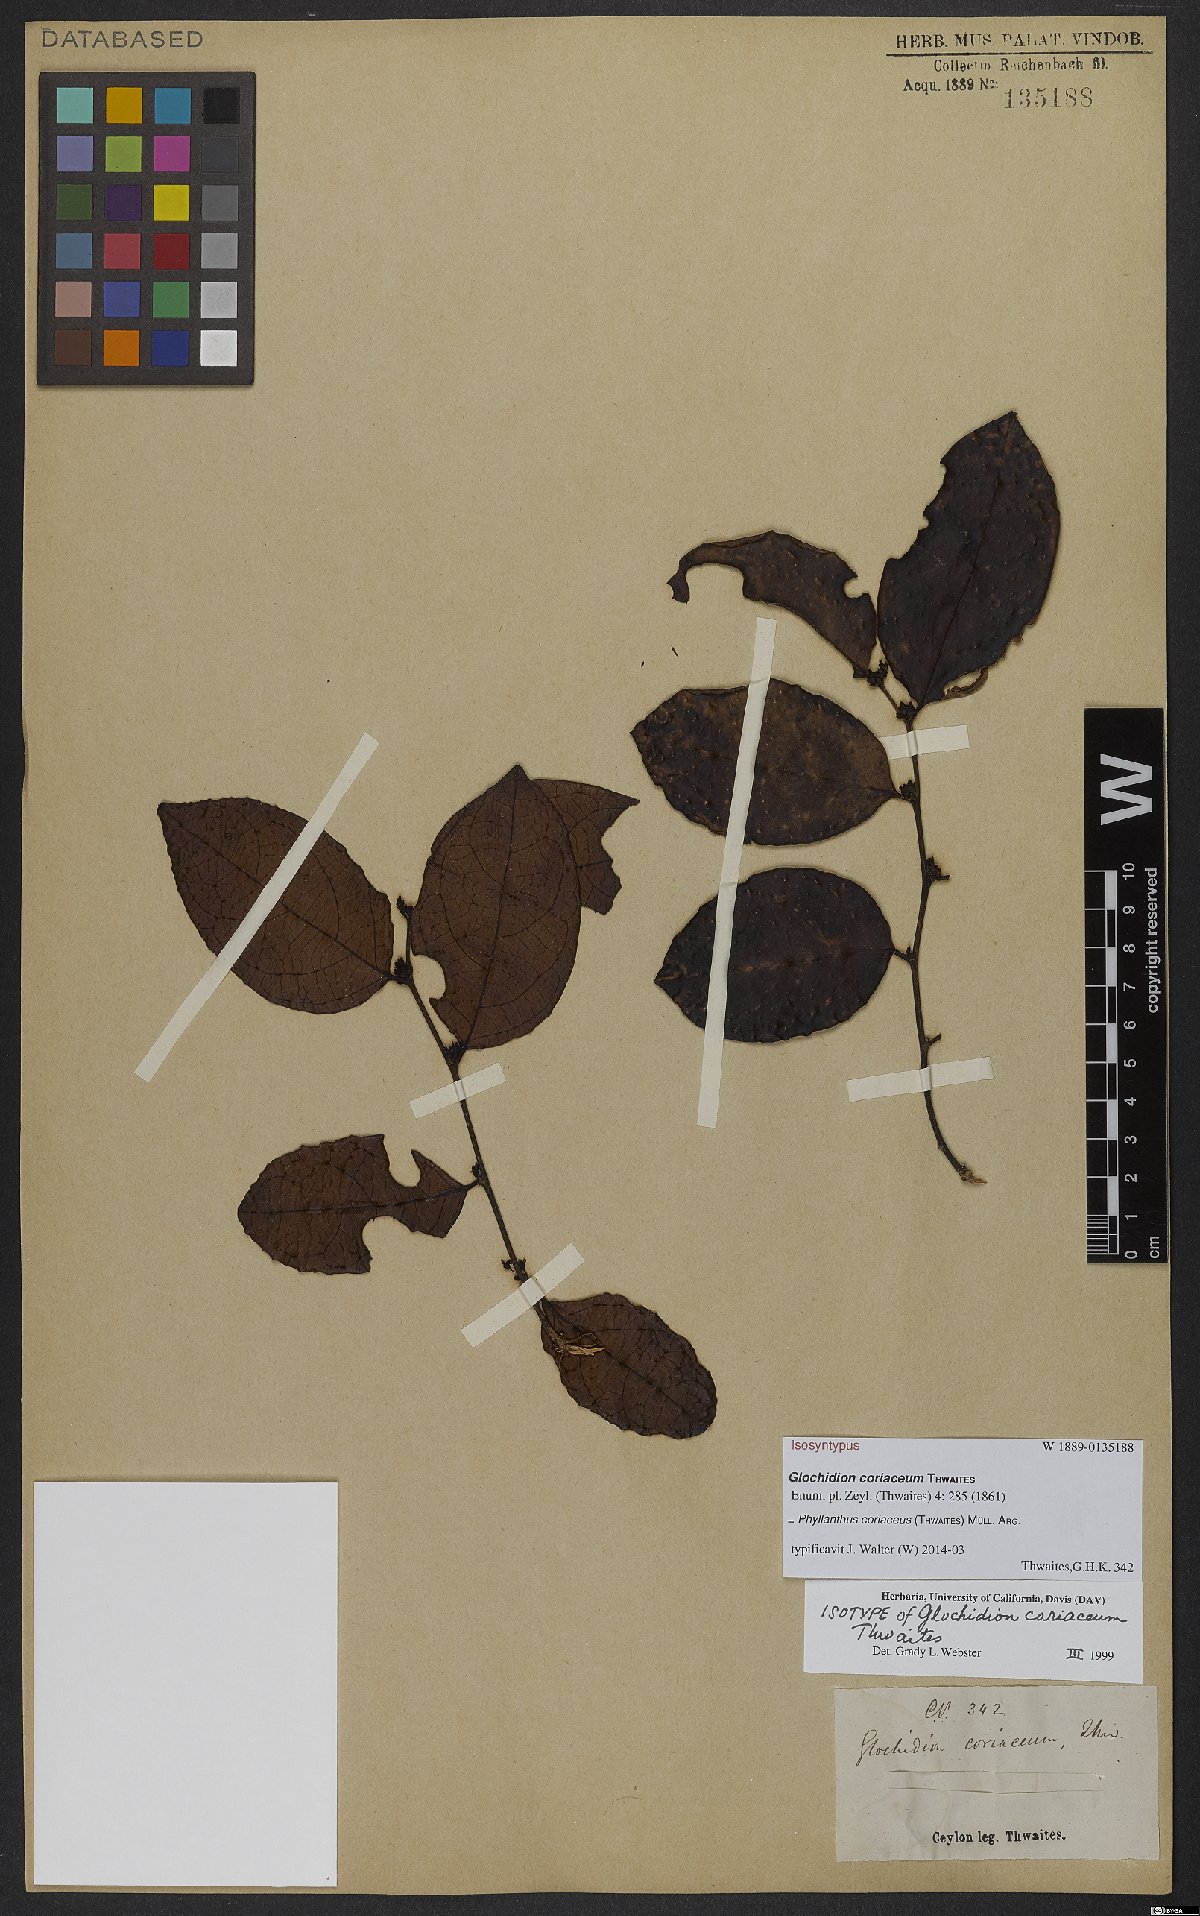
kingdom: Plantae
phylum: Tracheophyta
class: Magnoliopsida
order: Malpighiales
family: Phyllanthaceae
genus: Glochidion
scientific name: Glochidion coriaceum
